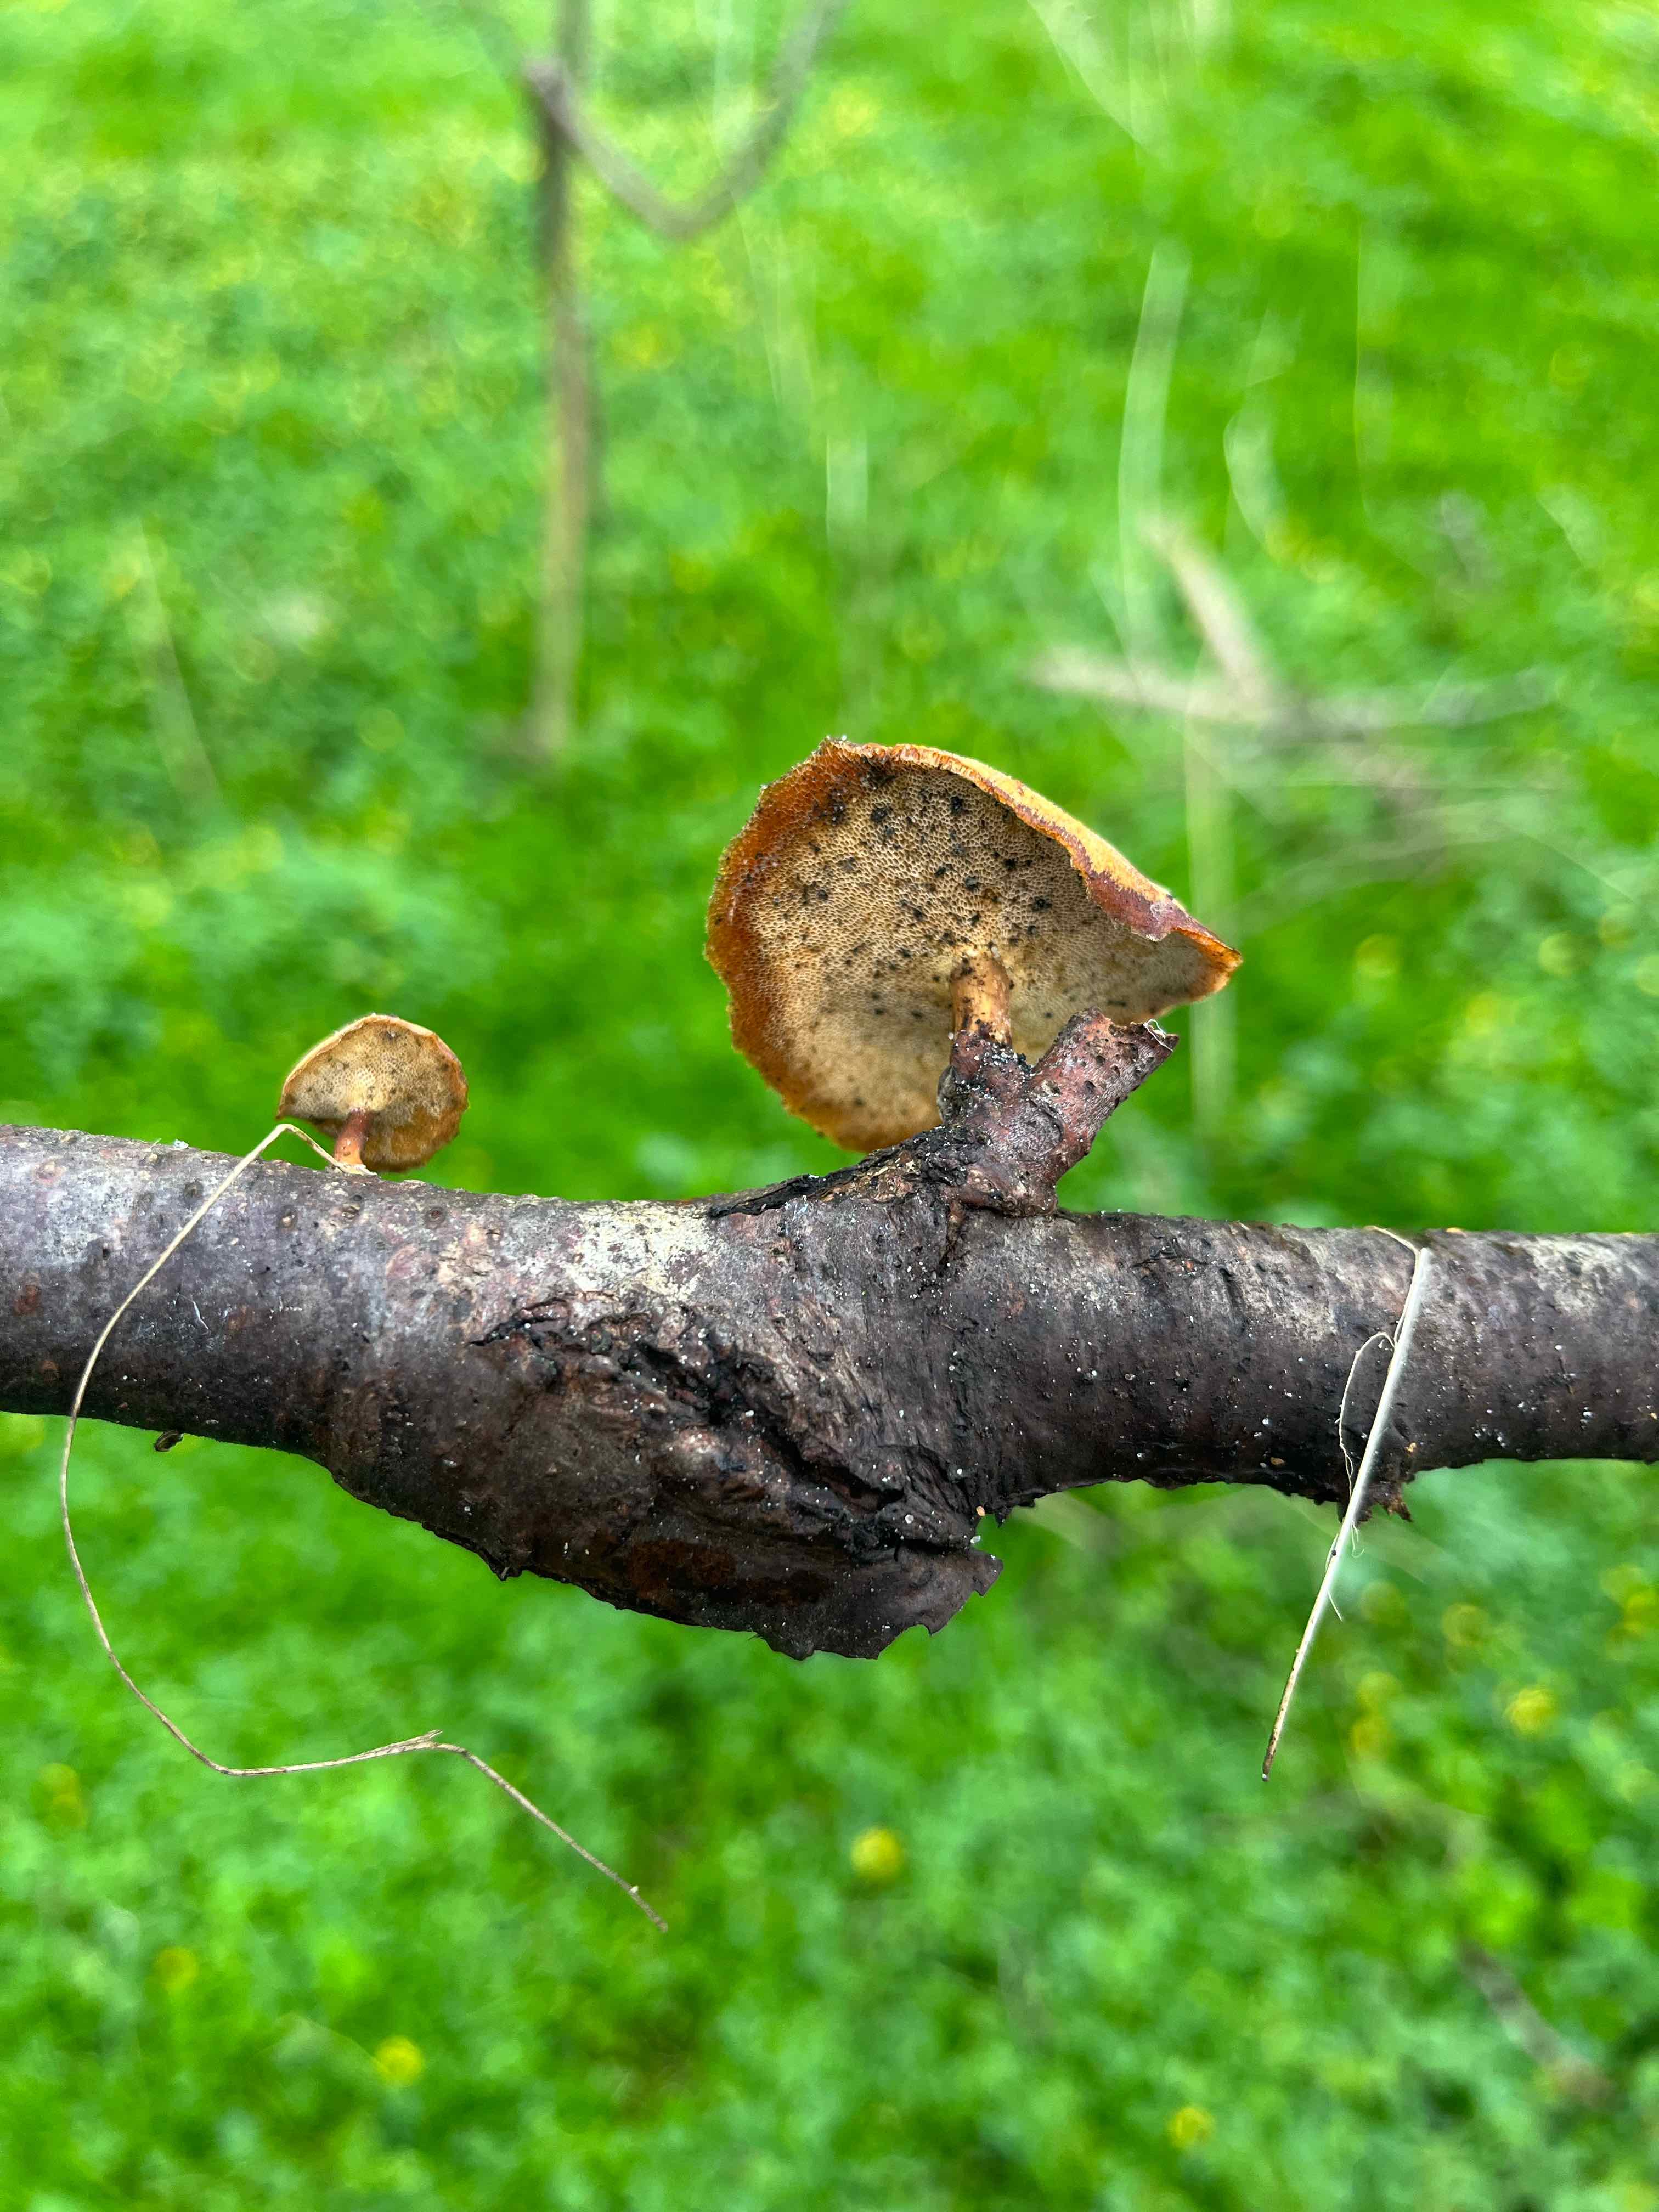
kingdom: Fungi
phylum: Basidiomycota
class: Agaricomycetes
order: Polyporales
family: Polyporaceae
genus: Lentinus
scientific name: Lentinus brumalis
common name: vinter-stilkporesvamp
